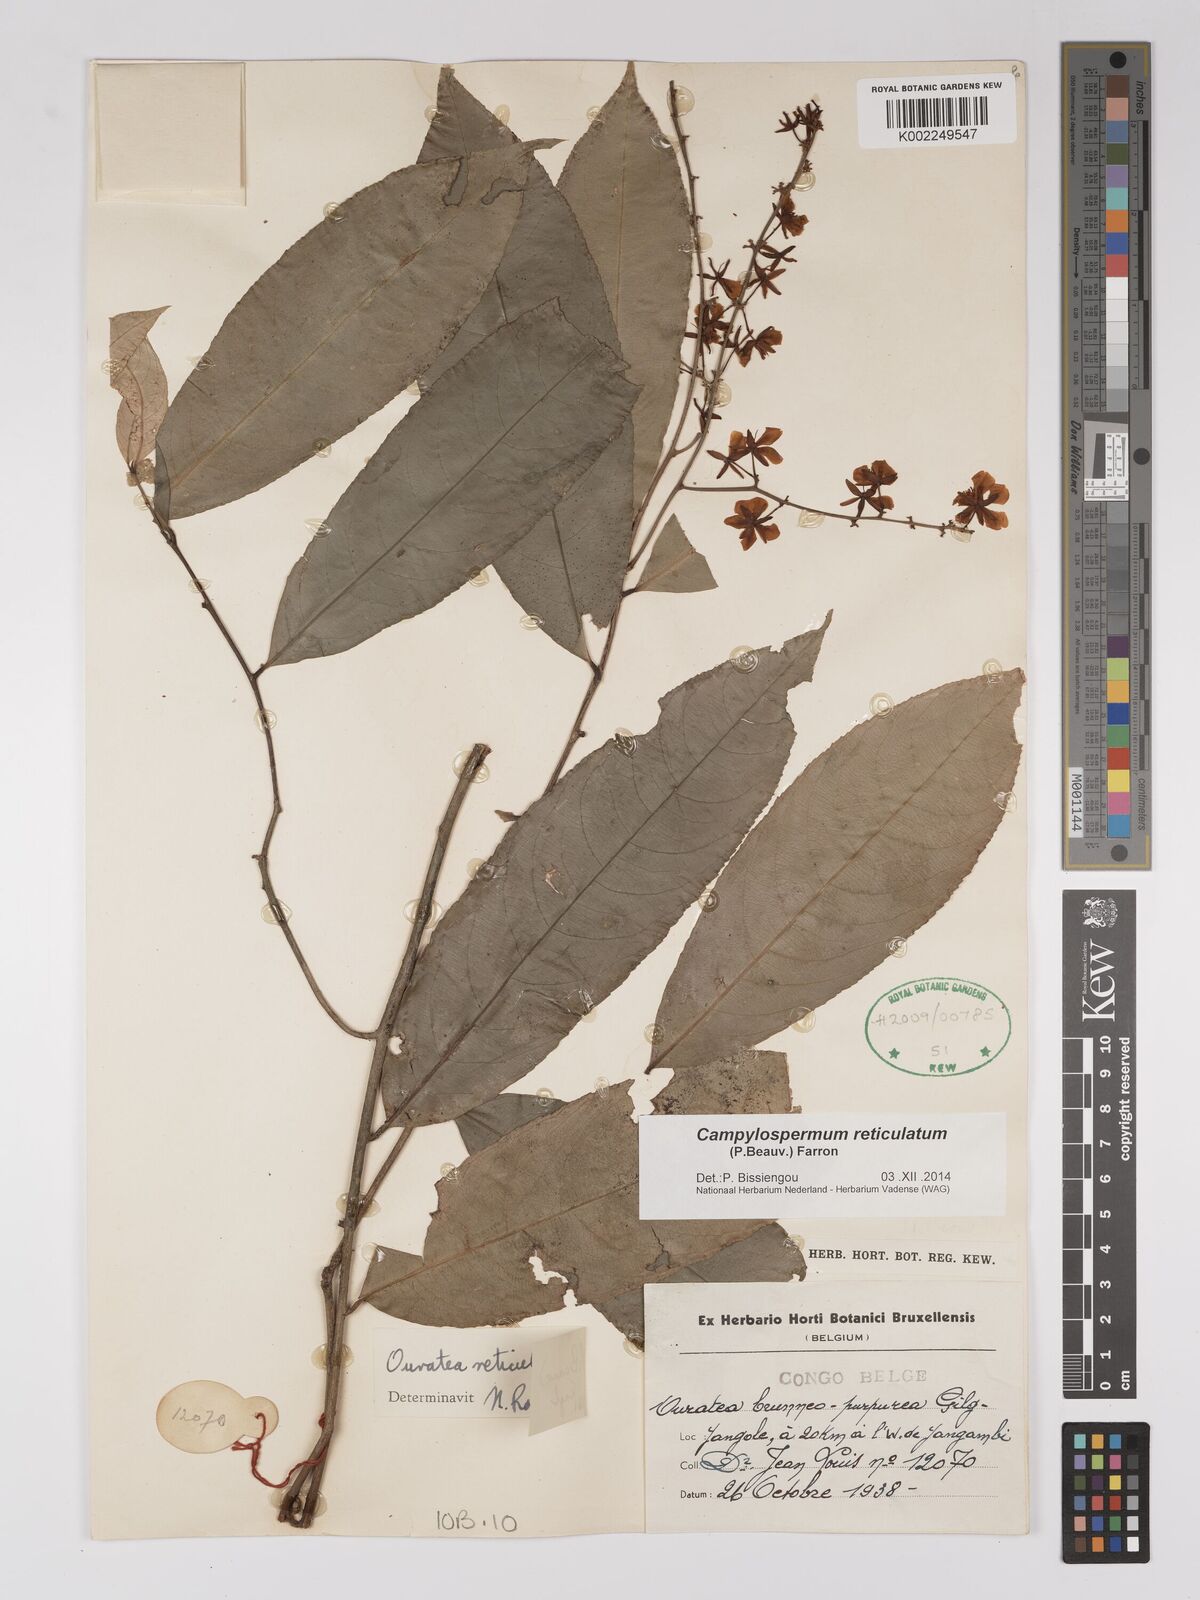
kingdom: Plantae
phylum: Tracheophyta
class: Magnoliopsida
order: Malpighiales
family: Ochnaceae
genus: Campylospermum
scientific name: Campylospermum reticulatum
